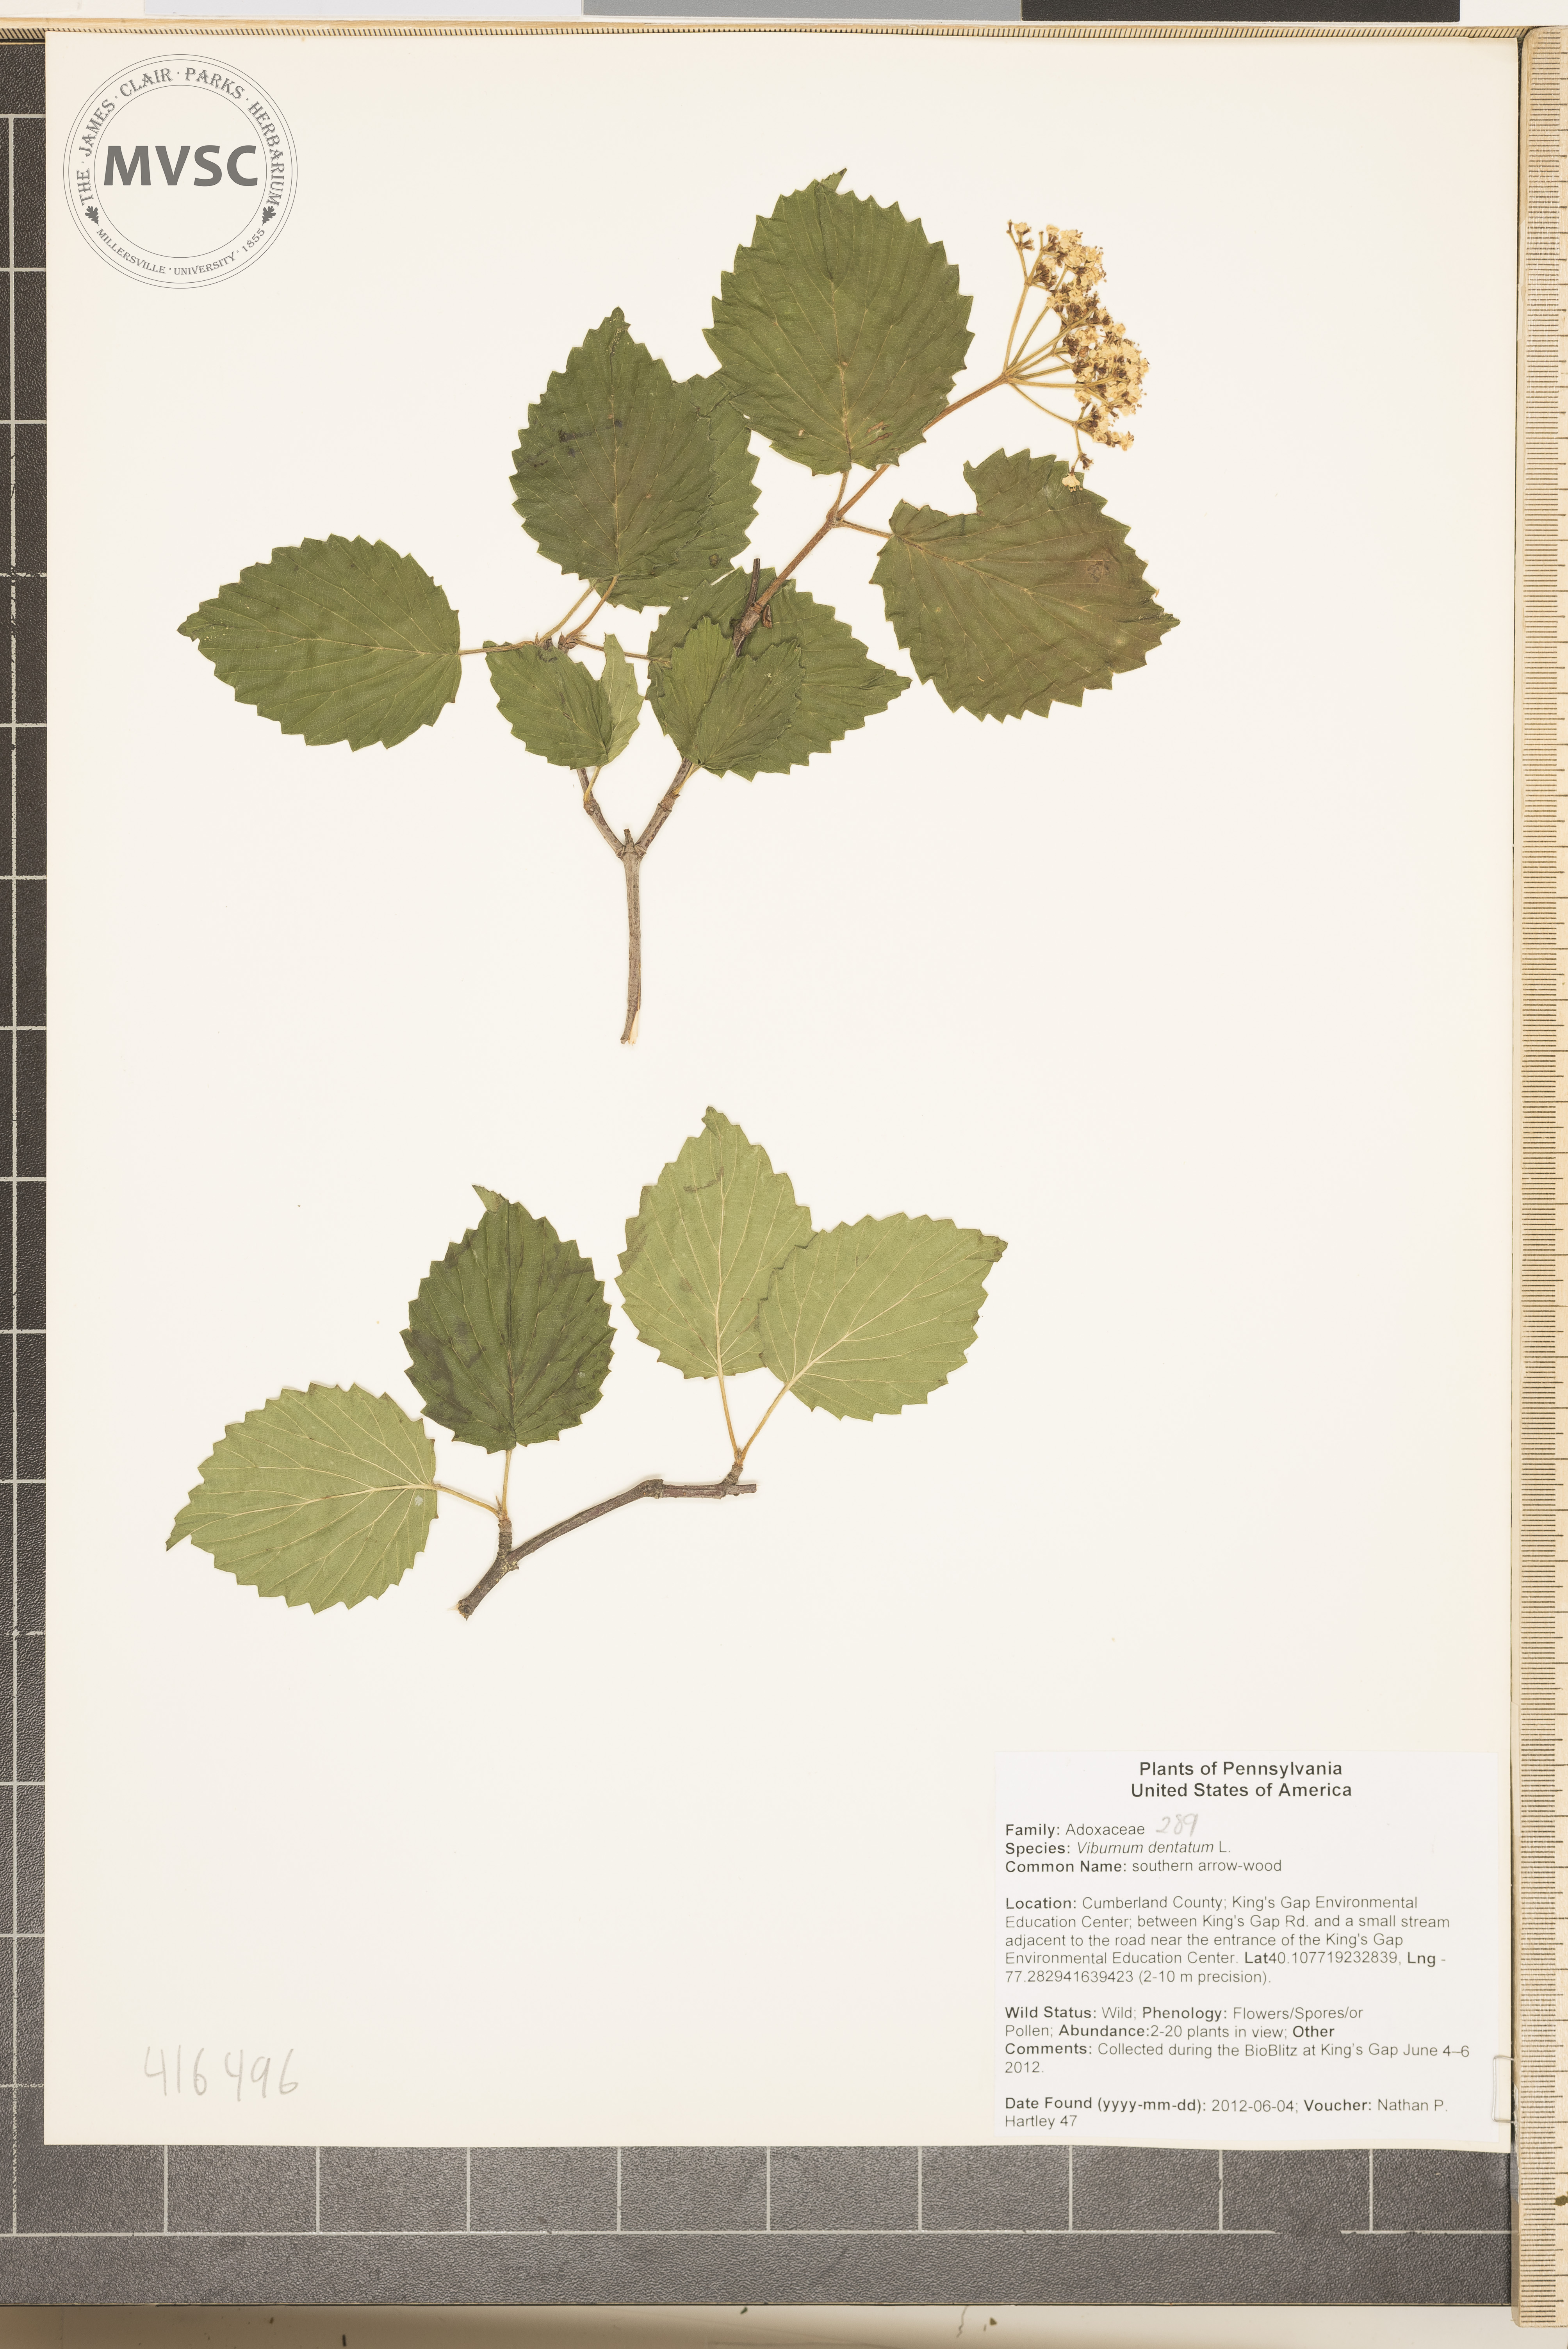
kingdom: Plantae
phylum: Tracheophyta
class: Magnoliopsida
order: Dipsacales
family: Viburnaceae
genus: Viburnum
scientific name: Viburnum dentatum
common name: southern arrow-wood
